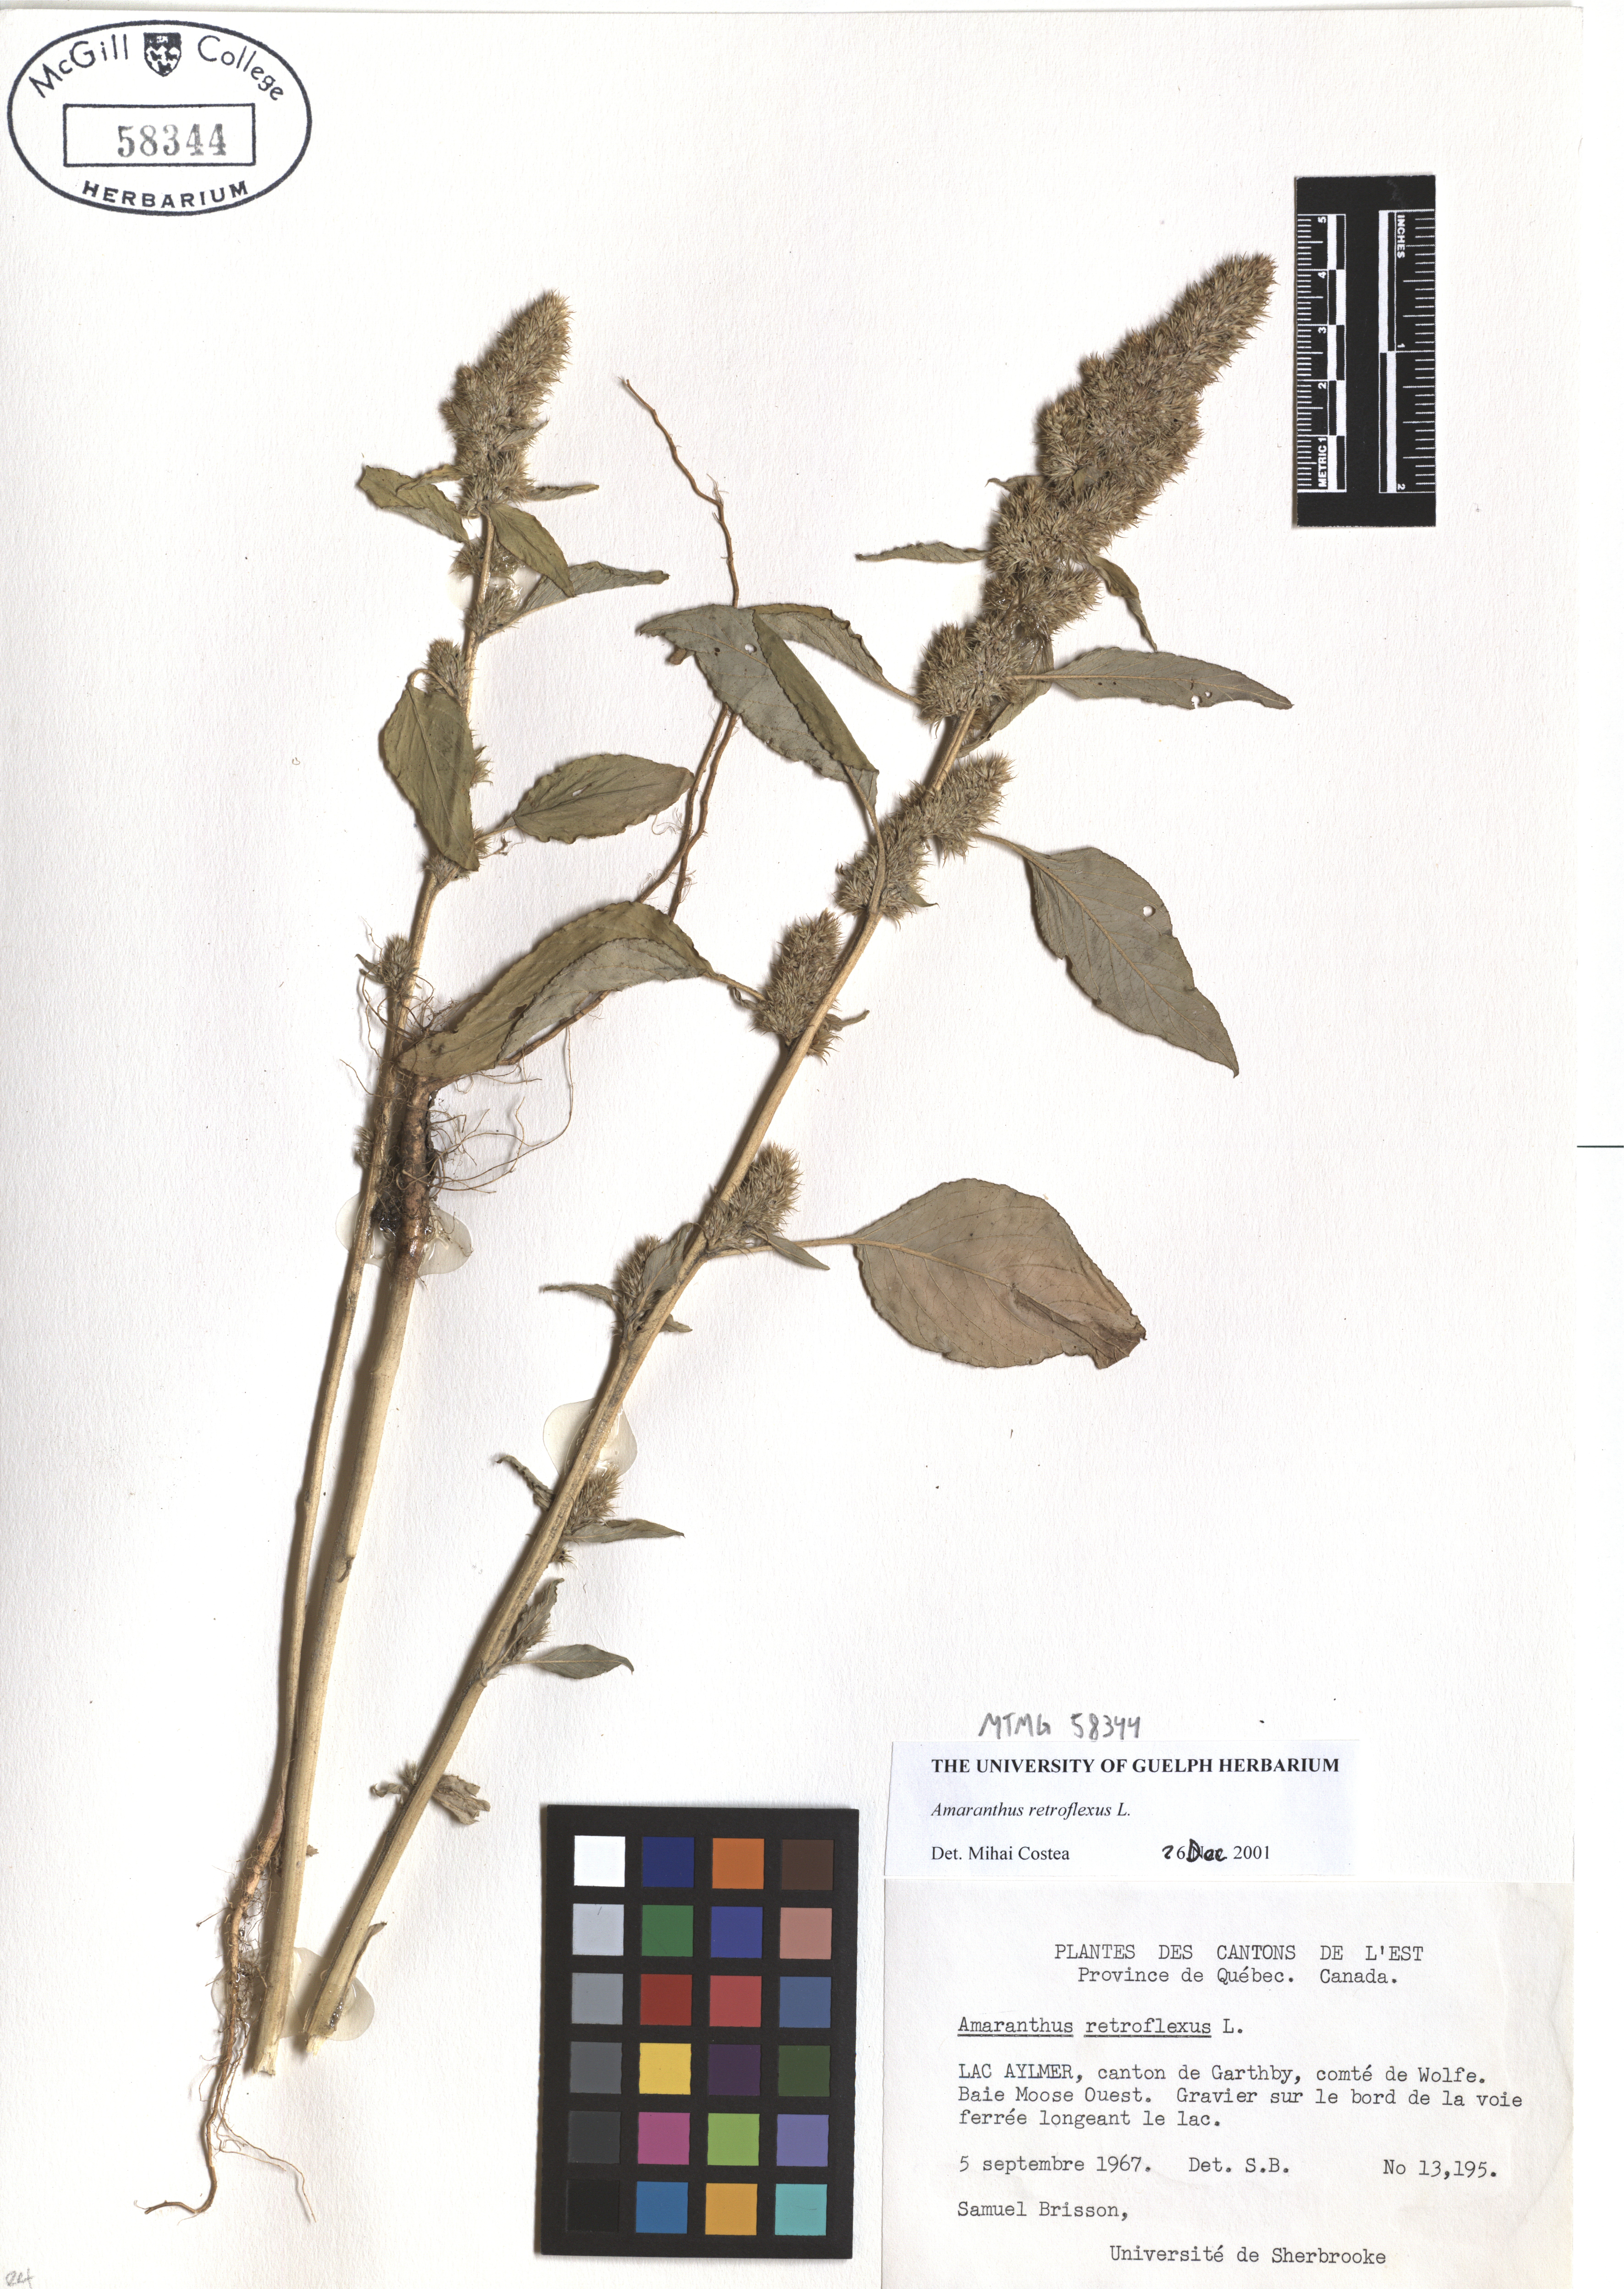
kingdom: Plantae
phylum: Tracheophyta
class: Magnoliopsida
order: Caryophyllales
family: Amaranthaceae
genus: Amaranthus
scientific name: Amaranthus retroflexus
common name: Redroot amaranth
